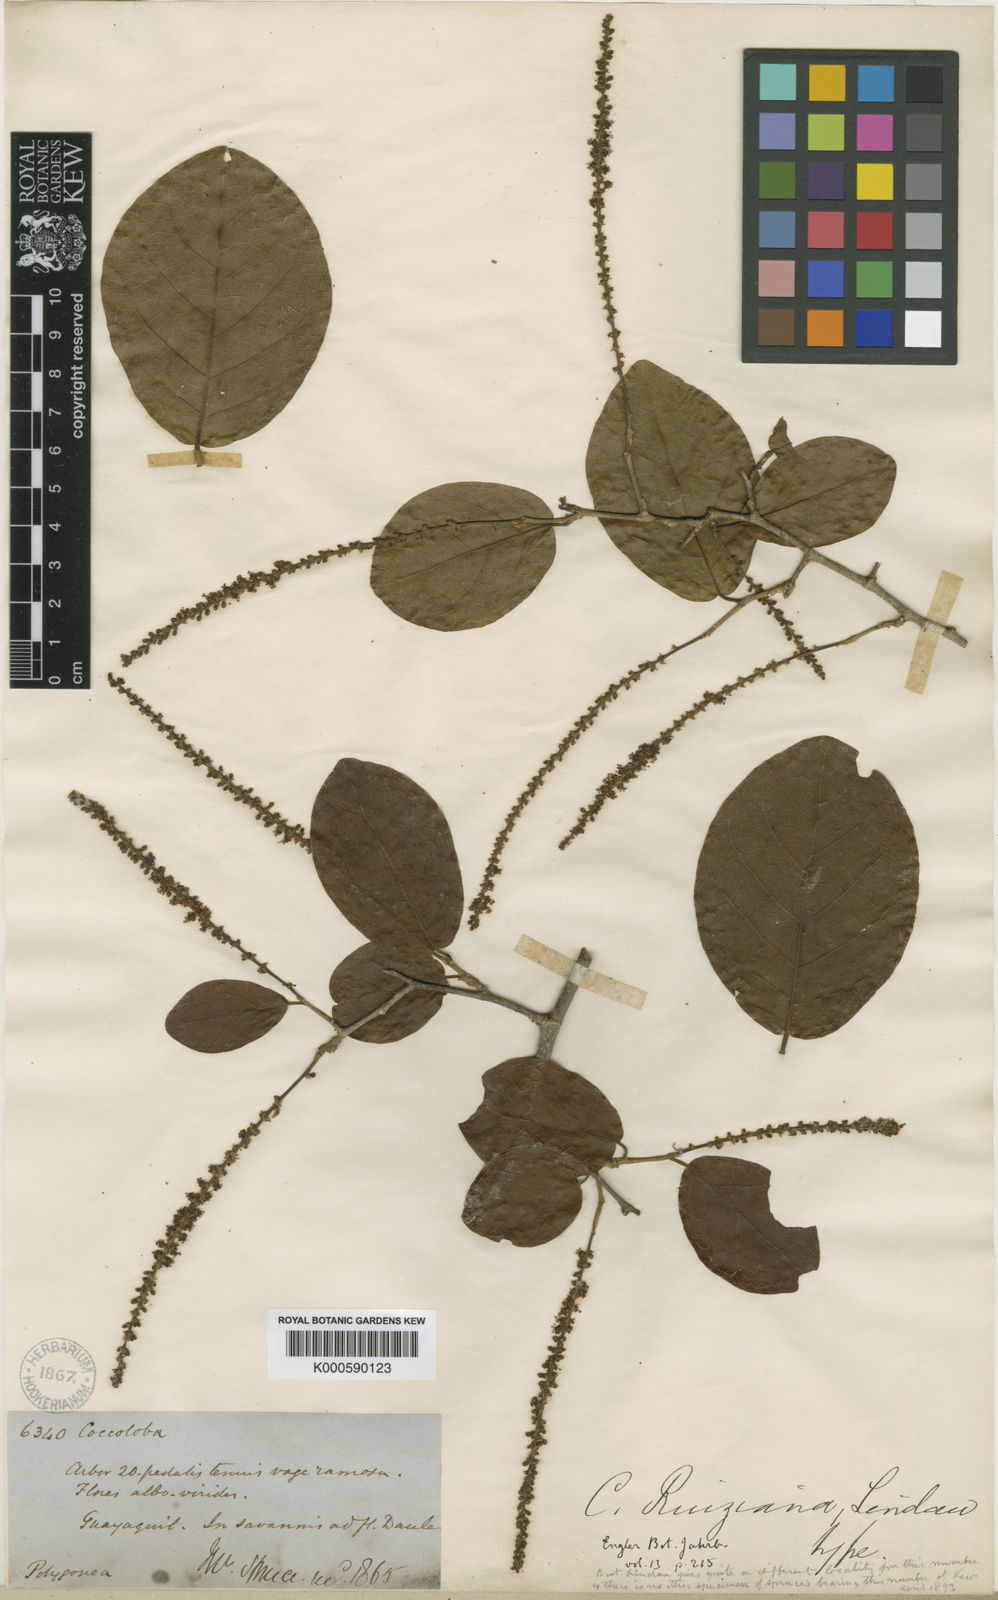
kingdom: Plantae
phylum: Tracheophyta
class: Magnoliopsida
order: Caryophyllales
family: Polygonaceae
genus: Coccoloba
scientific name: Coccoloba ruiziana
